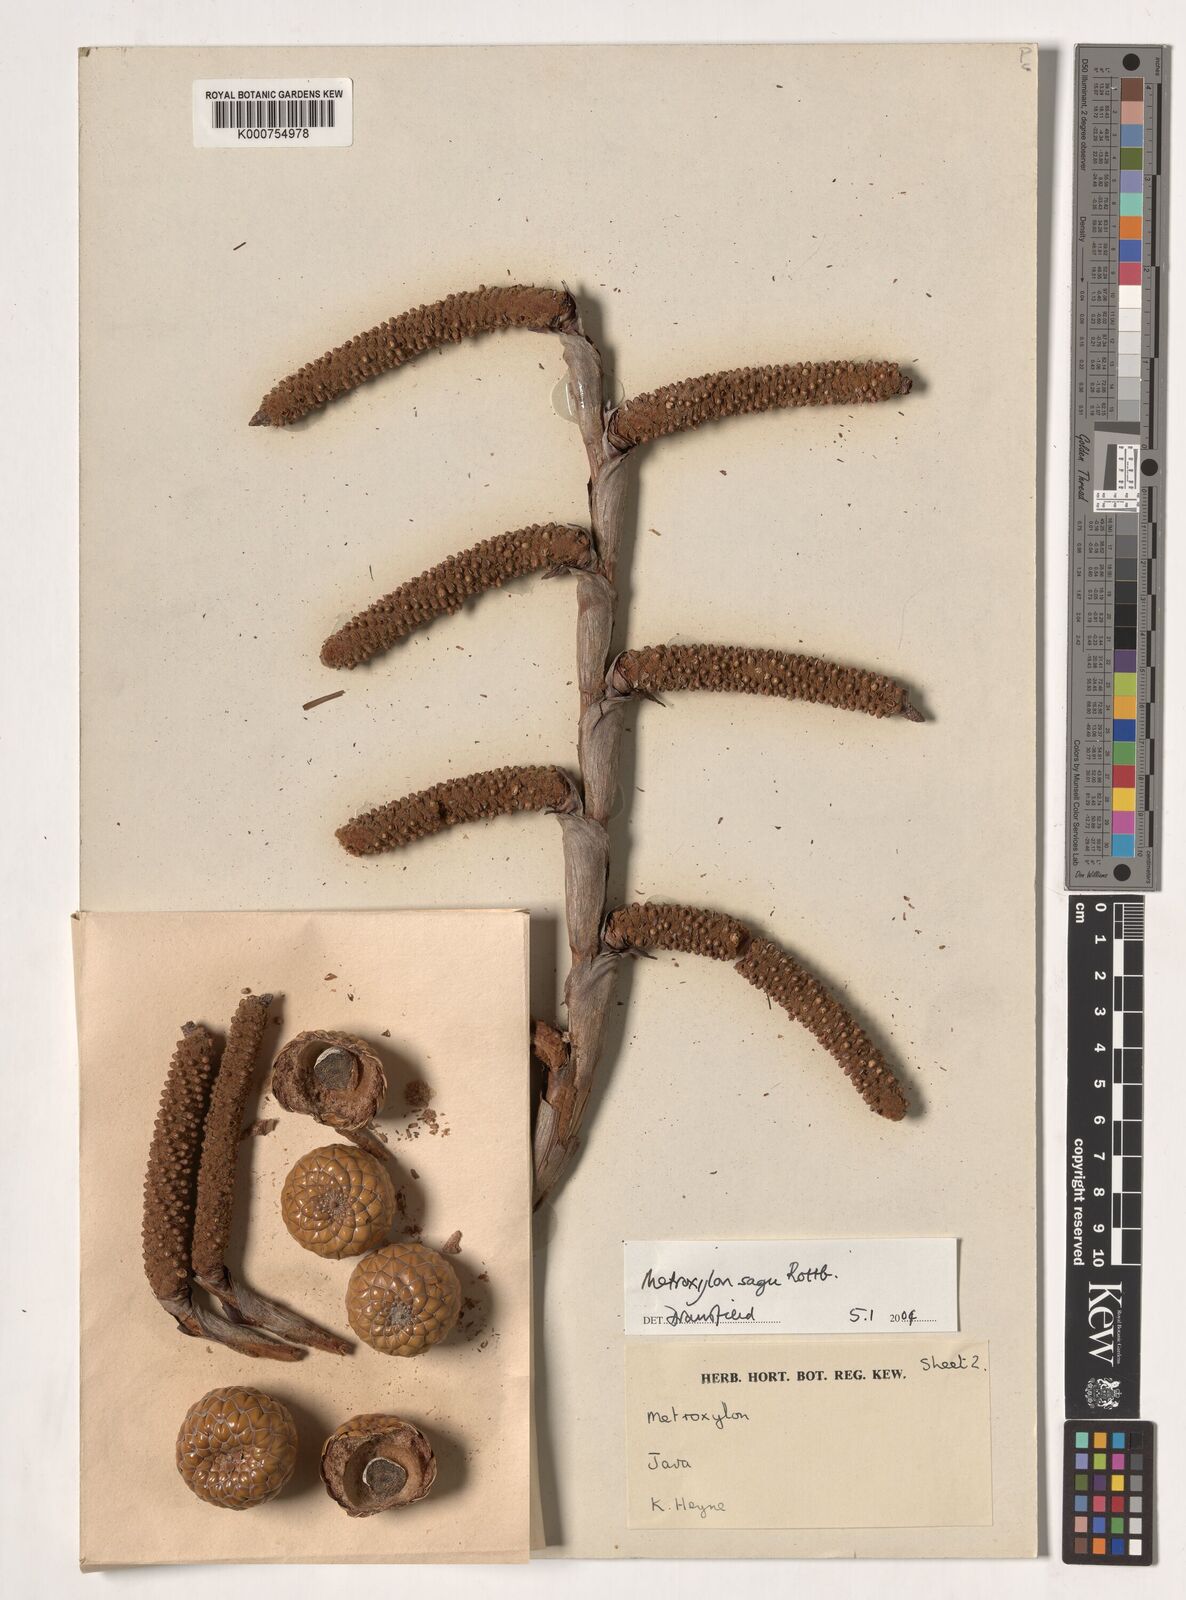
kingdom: Plantae
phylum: Tracheophyta
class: Liliopsida
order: Arecales
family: Arecaceae
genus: Metroxylon
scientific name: Metroxylon sagu
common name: Sago palm
